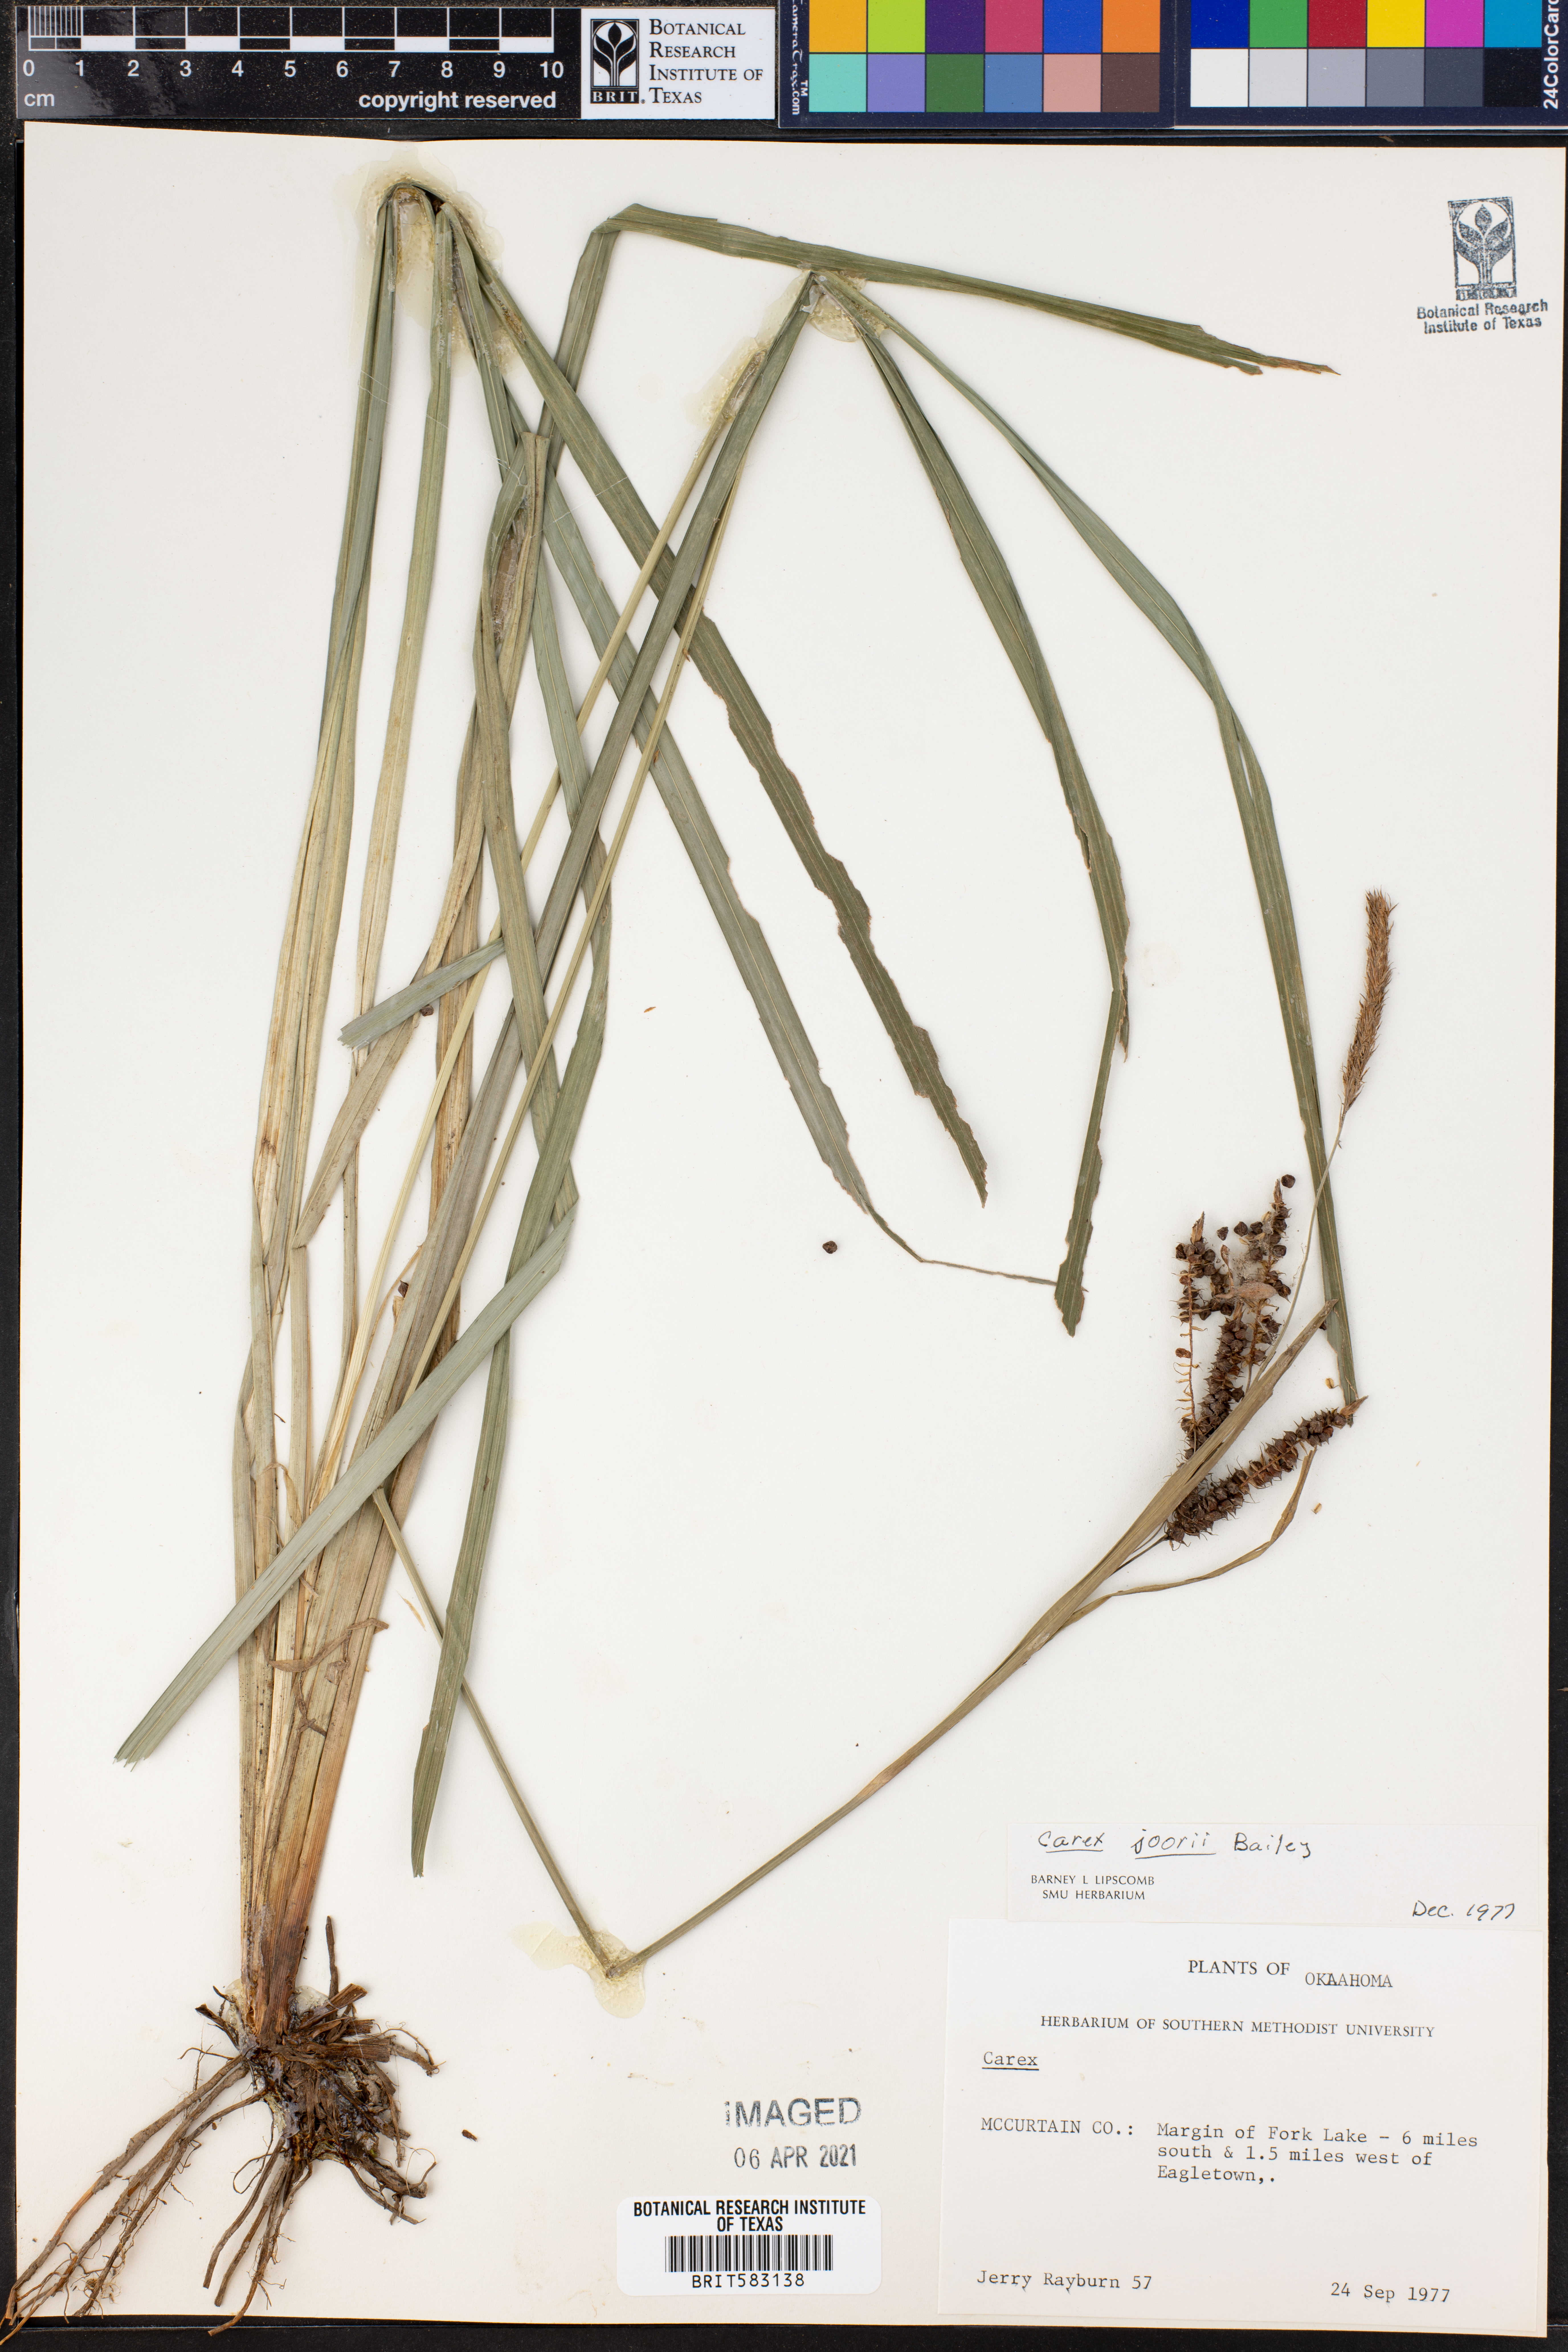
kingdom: Plantae
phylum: Tracheophyta
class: Liliopsida
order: Poales
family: Cyperaceae
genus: Carex
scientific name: Carex joorii
